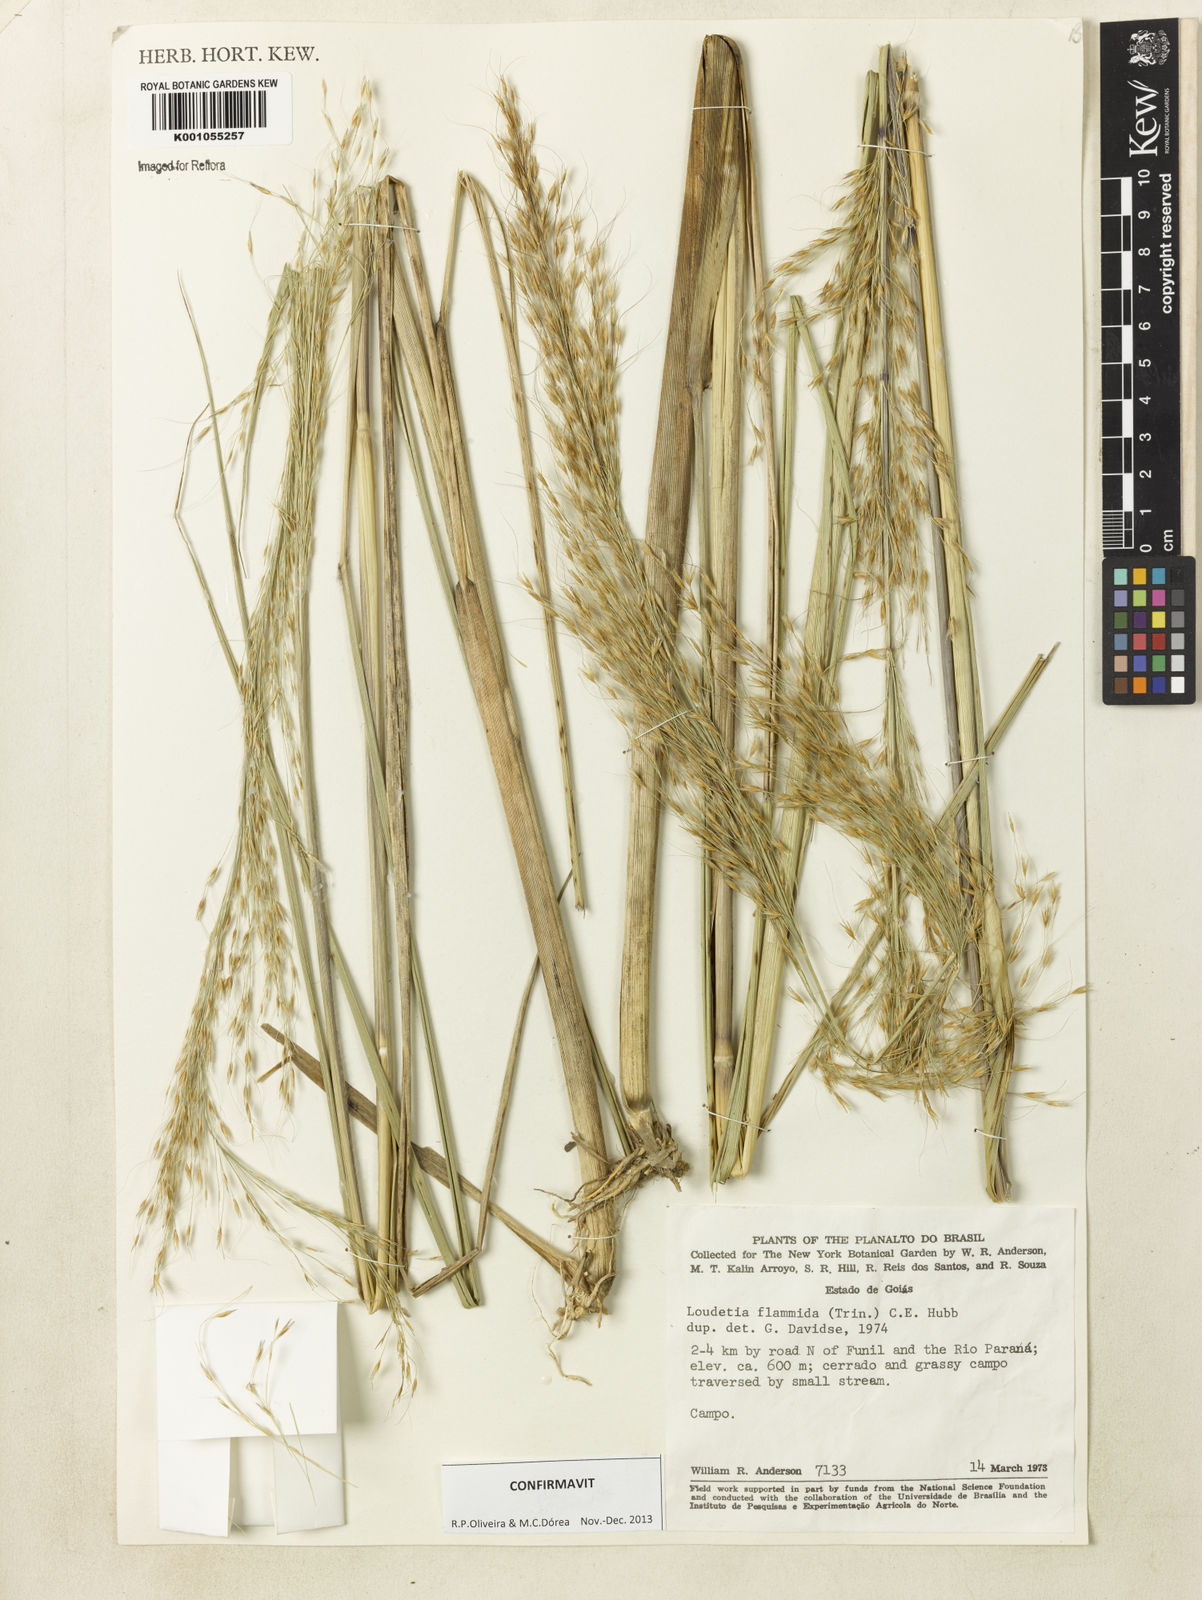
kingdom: Plantae
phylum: Tracheophyta
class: Liliopsida
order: Poales
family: Poaceae
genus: Loudetia
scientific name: Loudetia flammida
